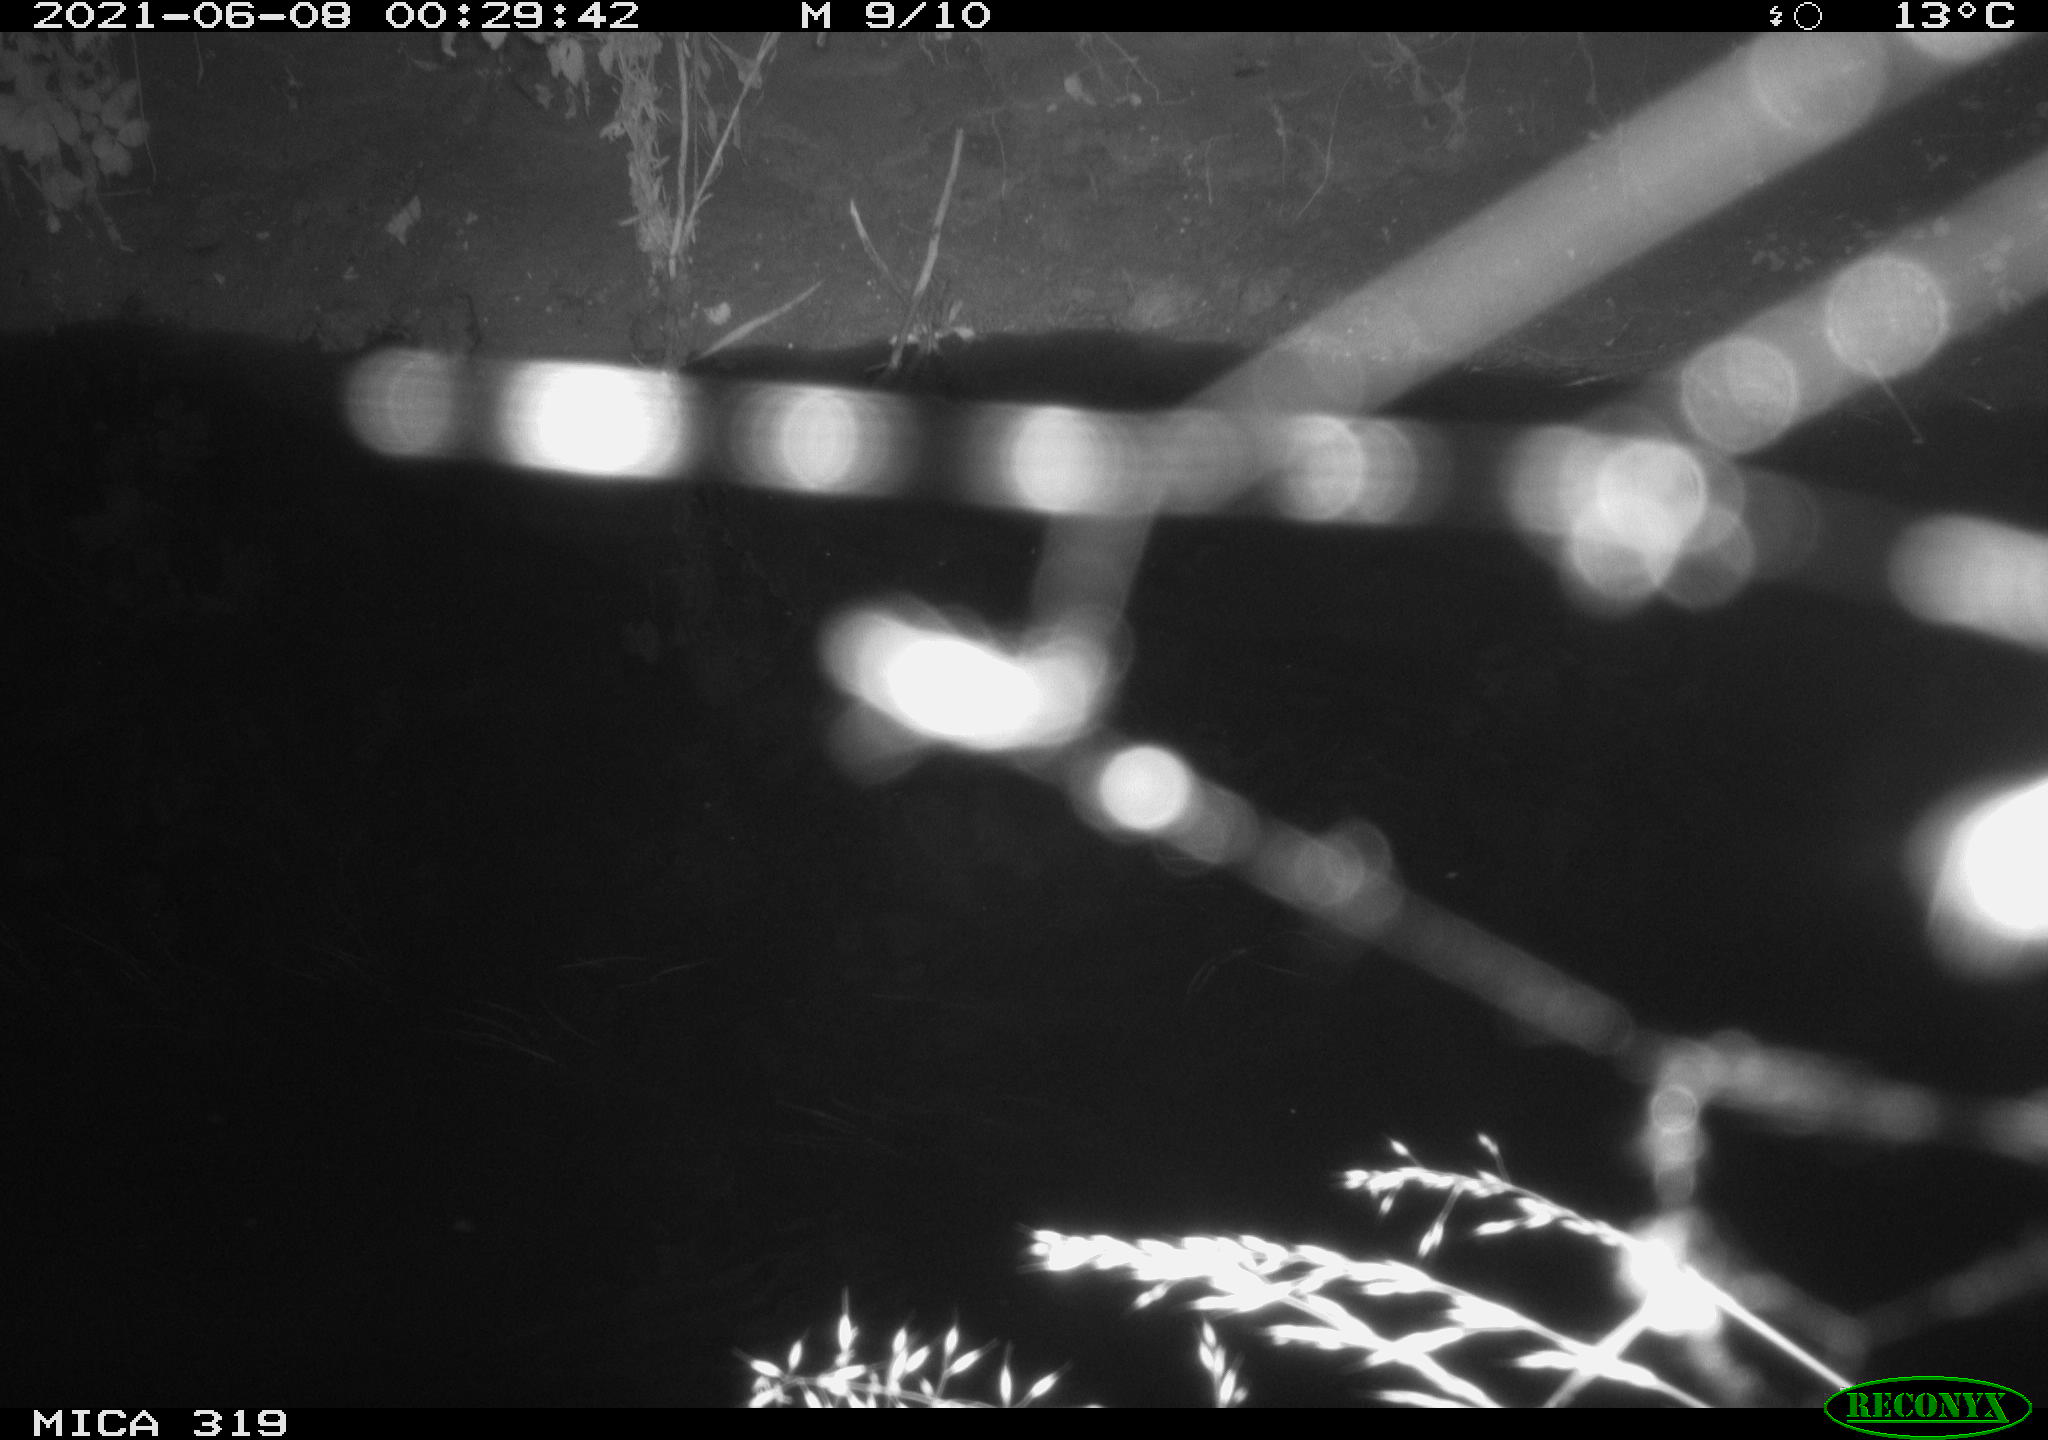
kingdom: Animalia
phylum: Chordata
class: Aves
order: Anseriformes
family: Anatidae
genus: Anas
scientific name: Anas platyrhynchos
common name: Mallard
